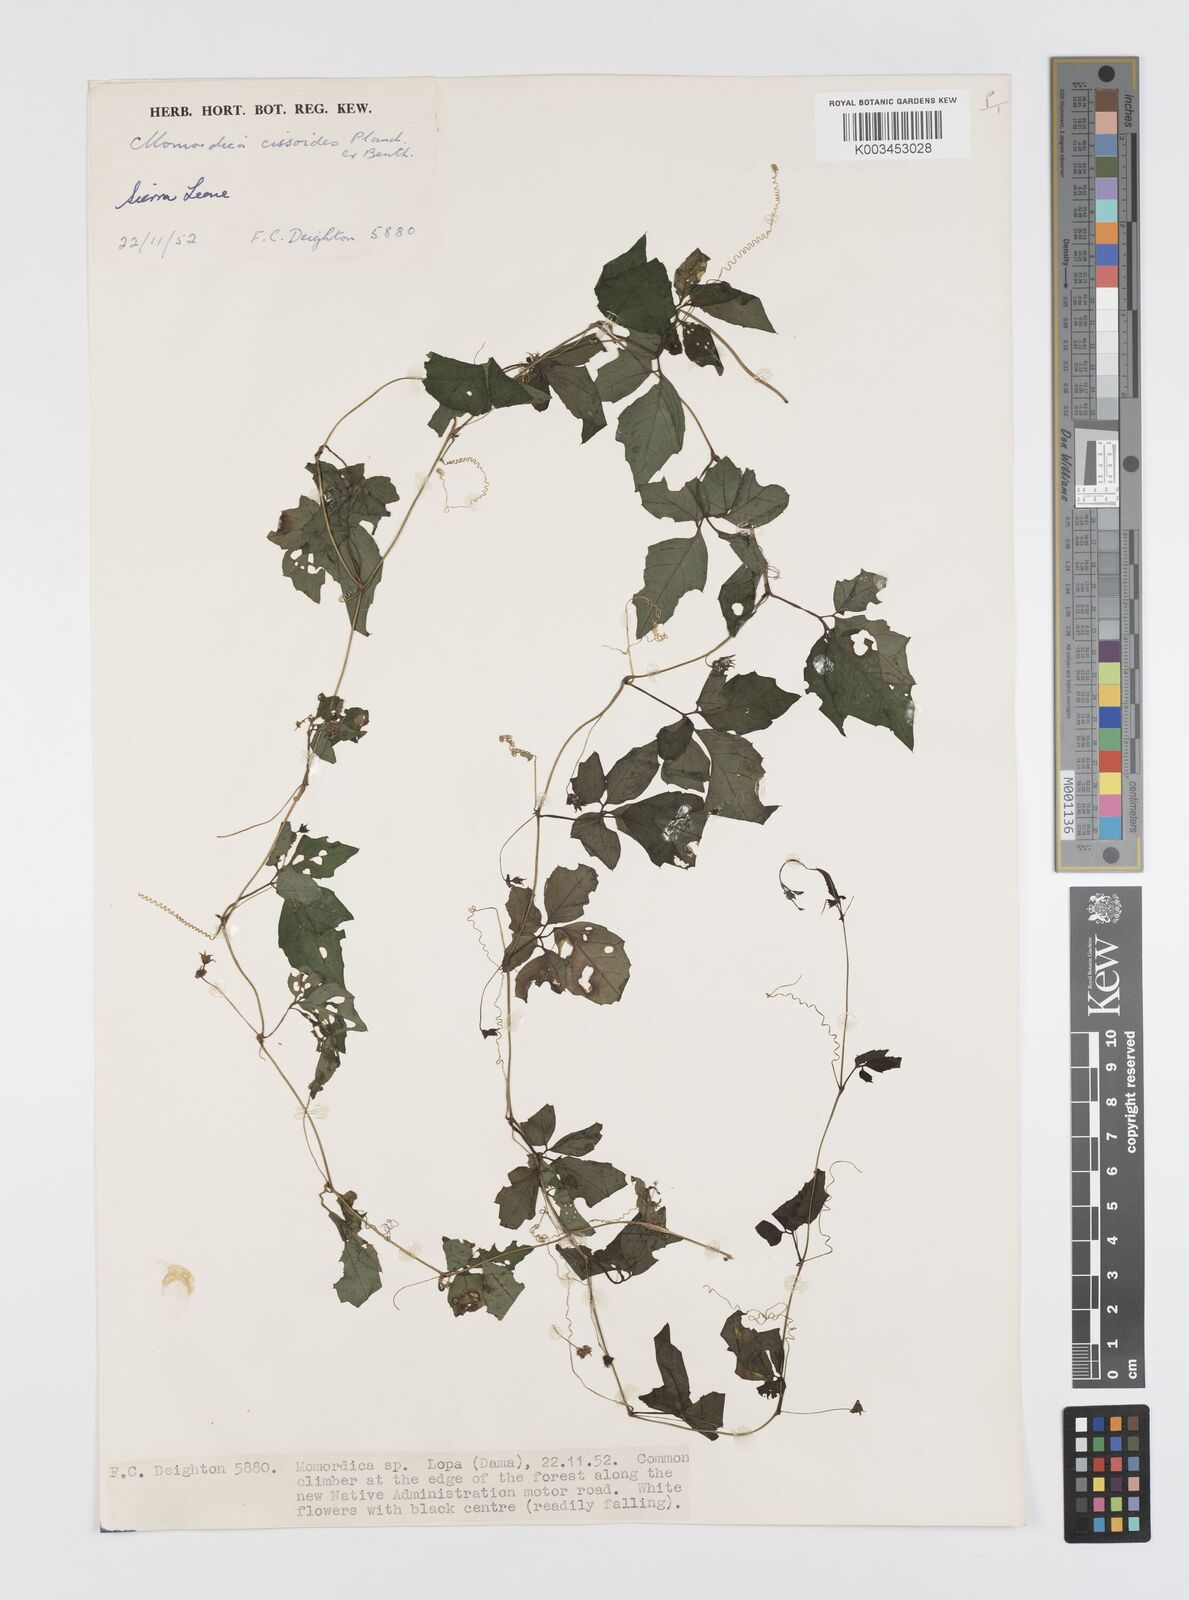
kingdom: Plantae
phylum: Tracheophyta
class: Magnoliopsida
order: Cucurbitales
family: Cucurbitaceae
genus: Momordica
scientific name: Momordica cissoides
